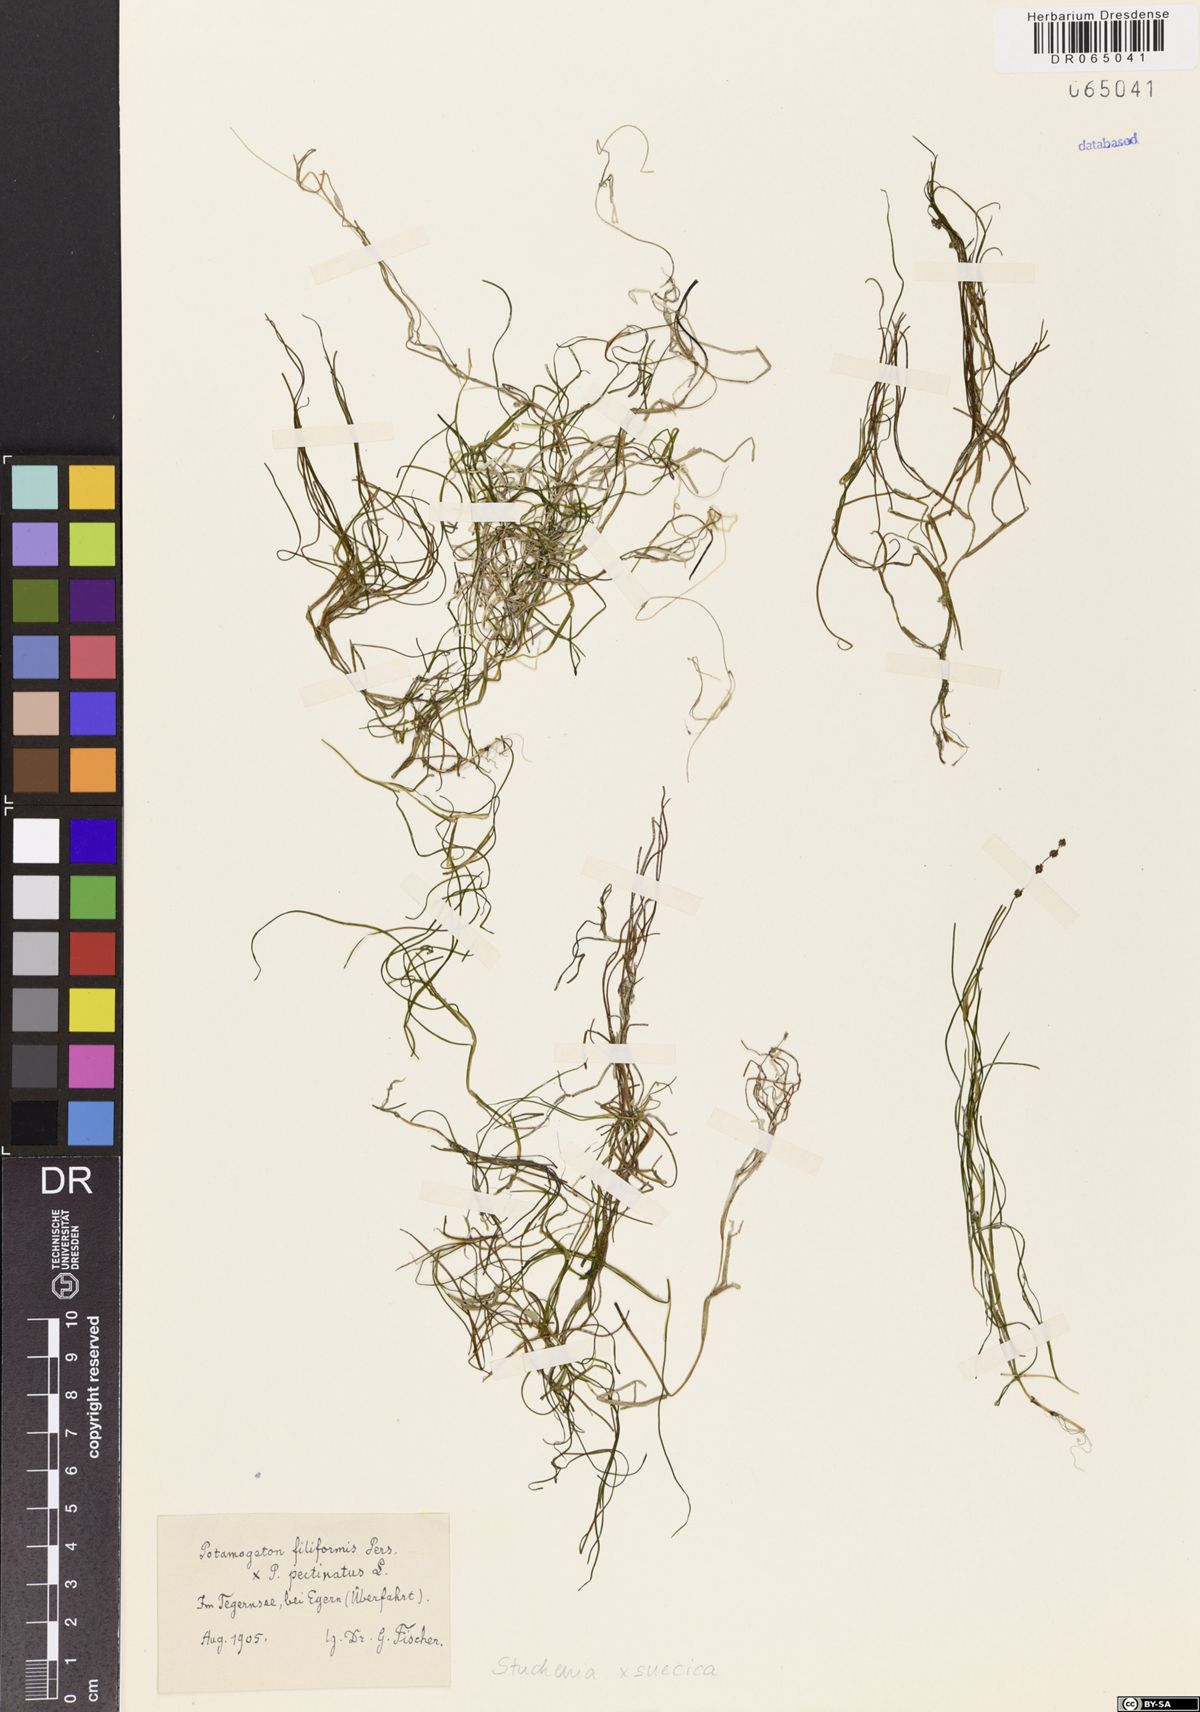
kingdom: Plantae
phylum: Tracheophyta
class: Liliopsida
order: Alismatales
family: Potamogetonaceae
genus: Stuckenia
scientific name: Stuckenia suecica
